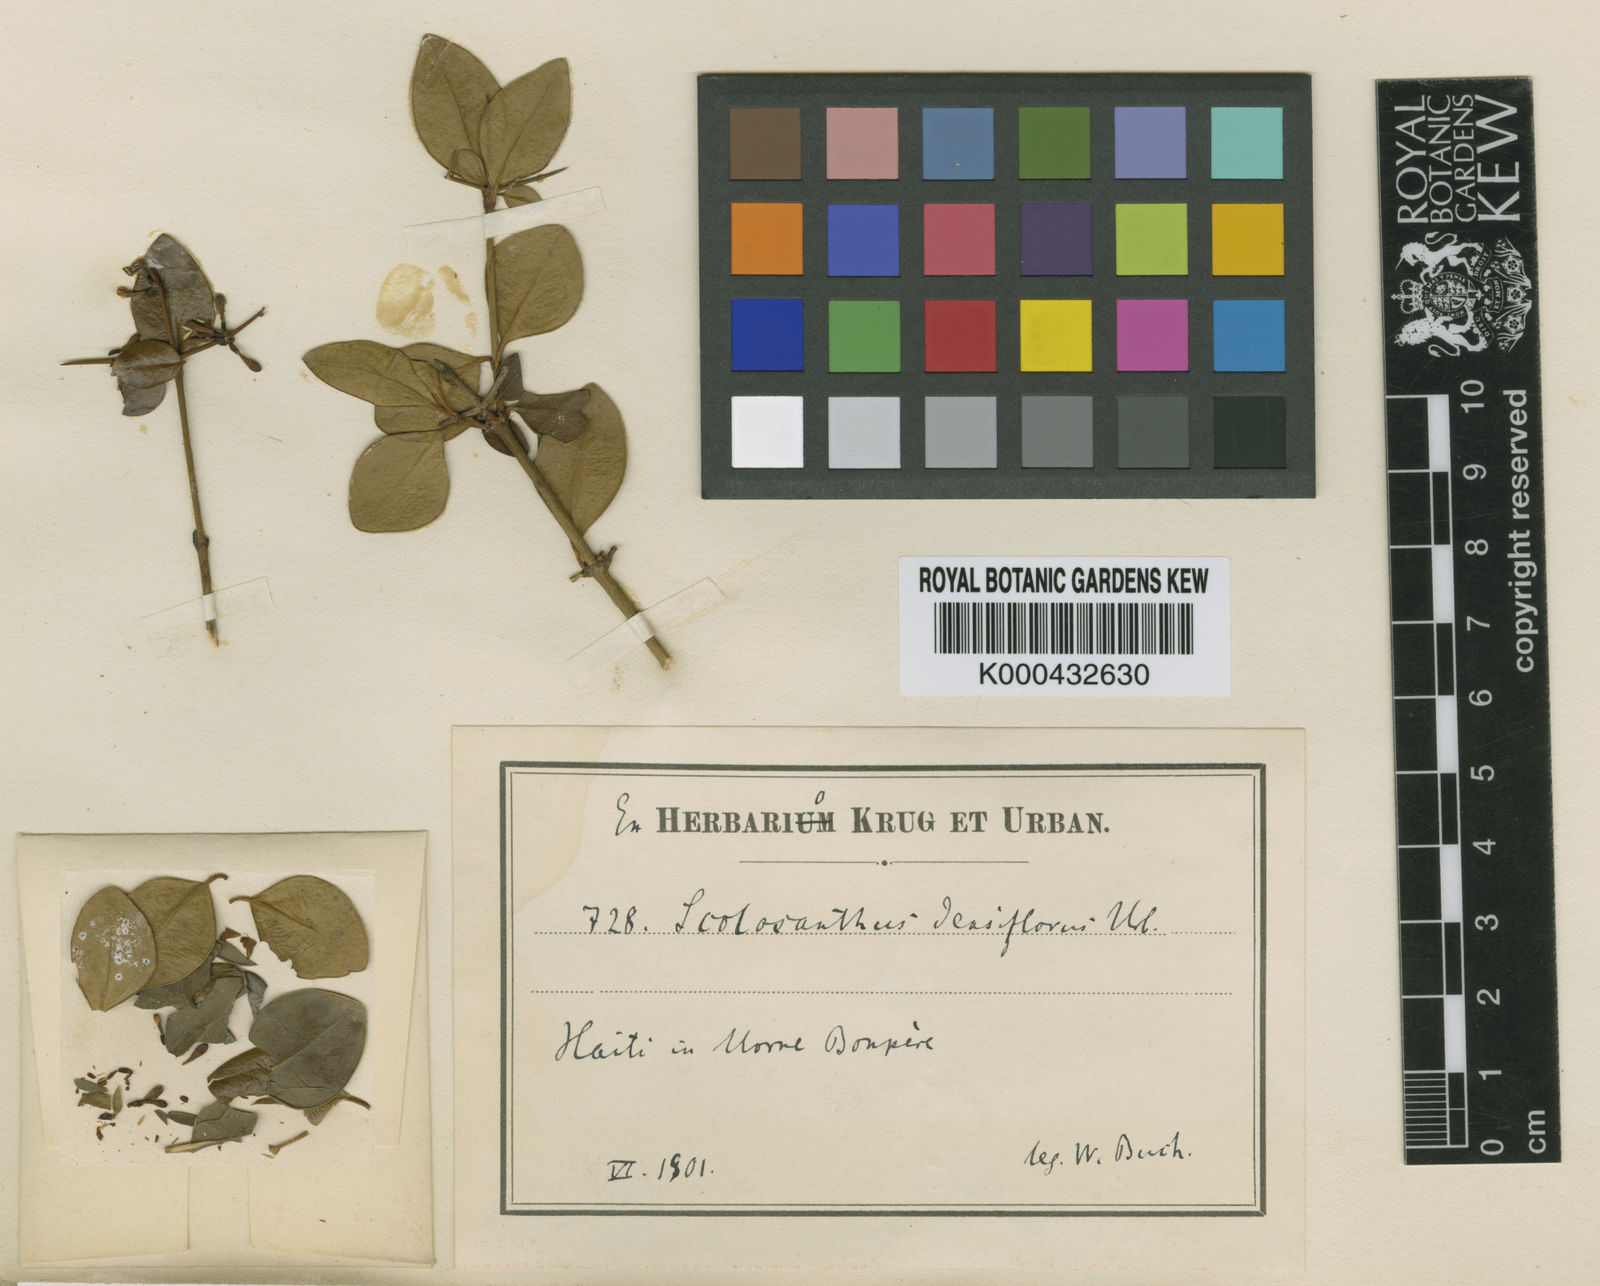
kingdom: Plantae
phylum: Tracheophyta
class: Magnoliopsida
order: Gentianales
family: Rubiaceae
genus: Scolosanthus
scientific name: Scolosanthus densiflorus
